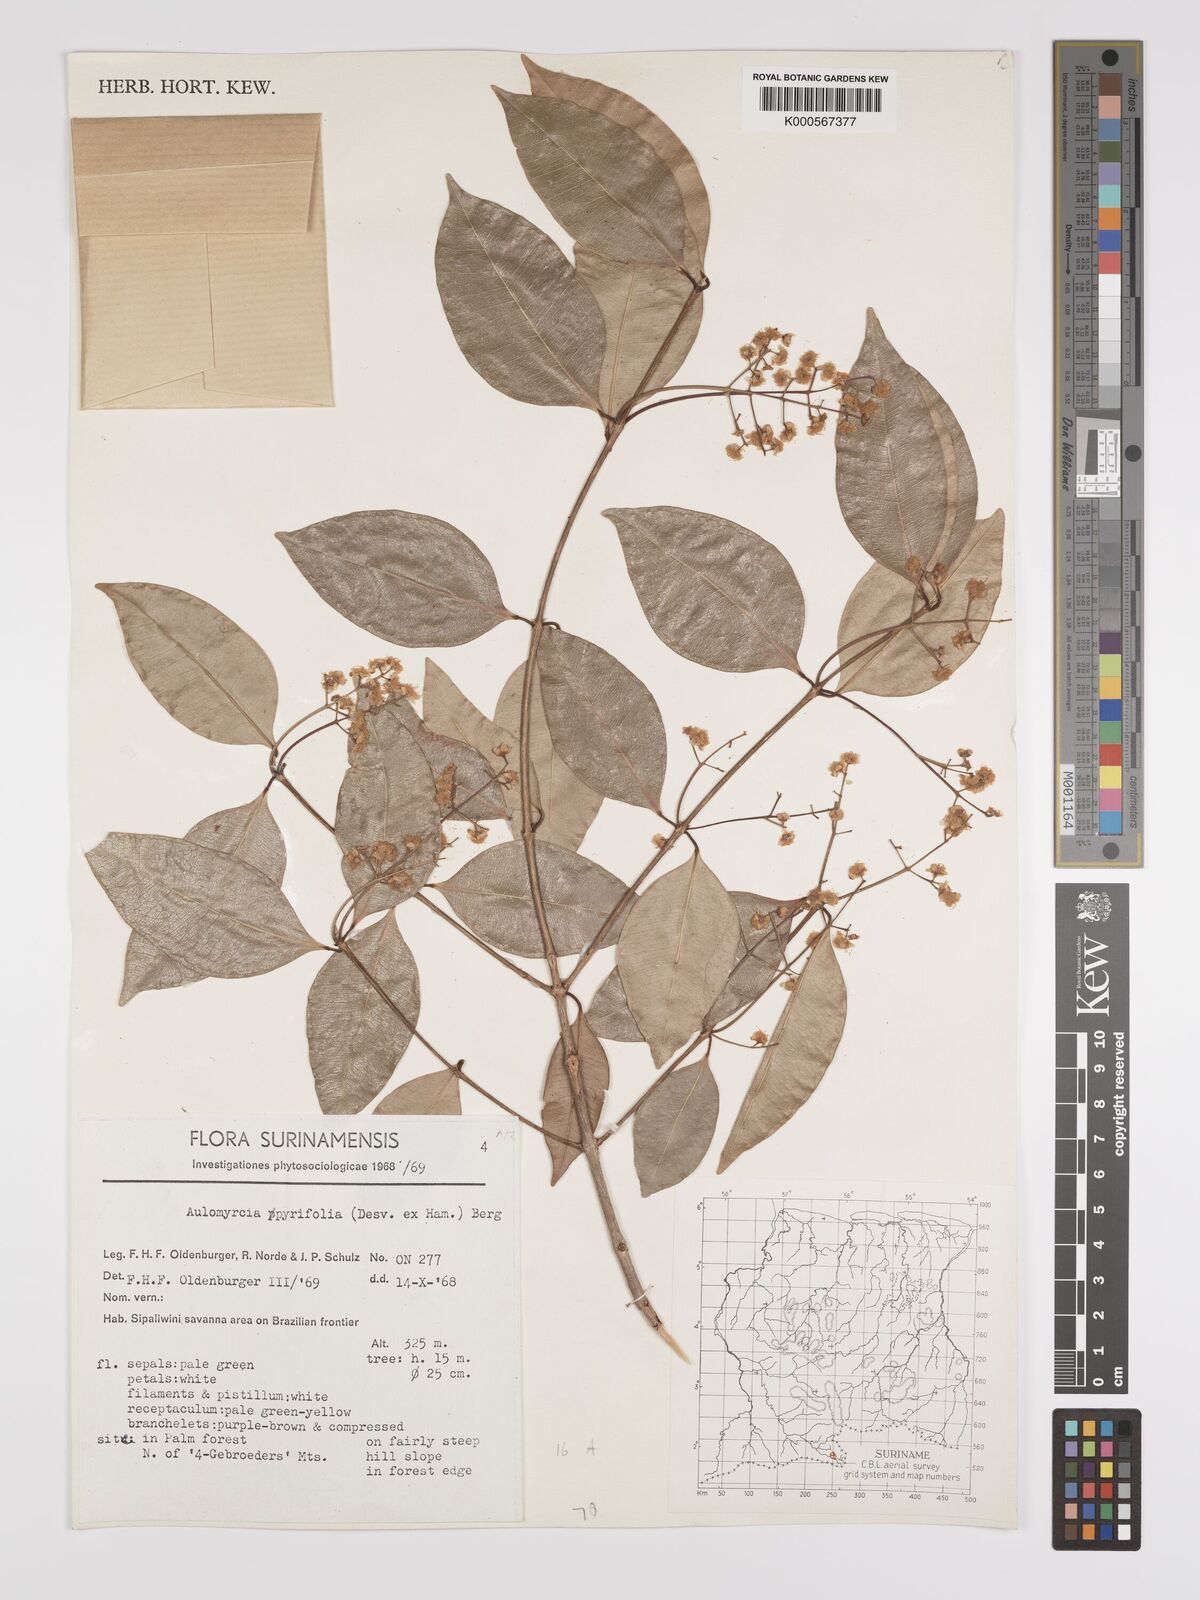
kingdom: Plantae
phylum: Tracheophyta
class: Magnoliopsida
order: Myrtales
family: Myrtaceae
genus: Myrcia
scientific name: Myrcia pyrifolia
